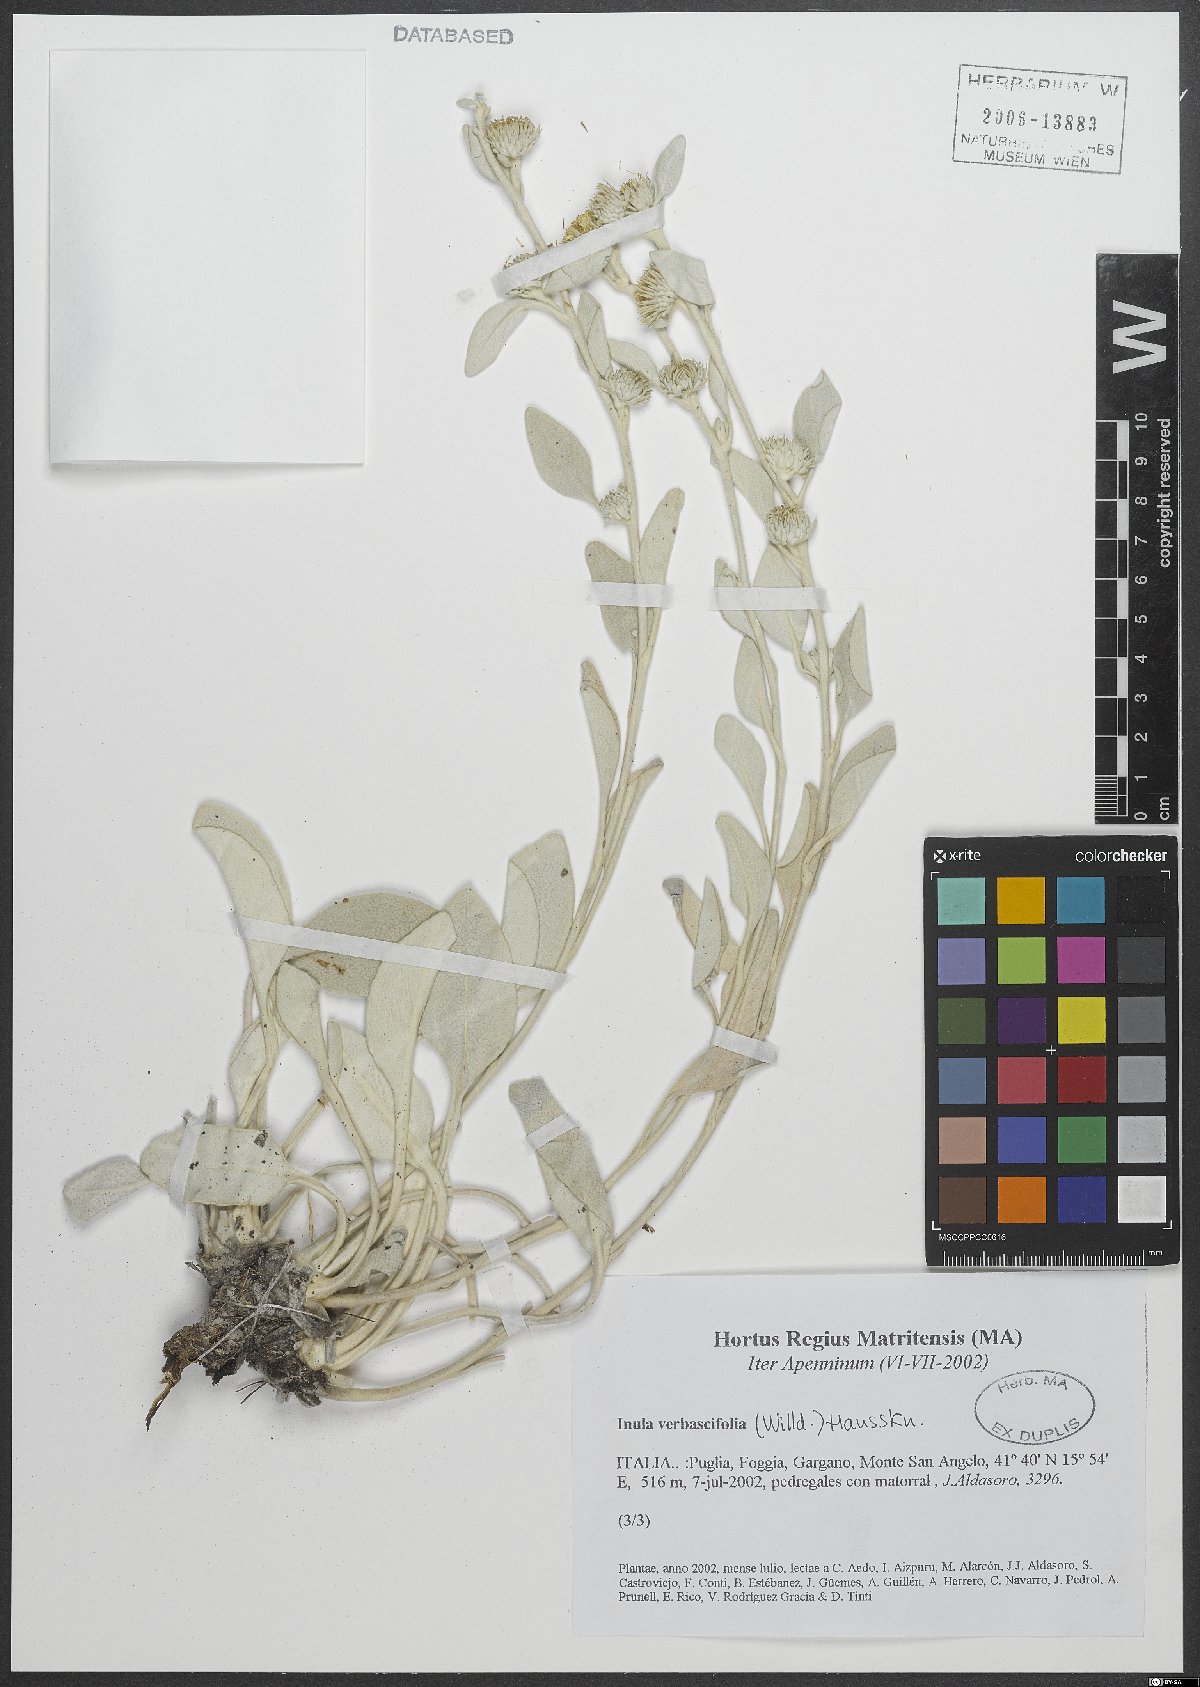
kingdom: Plantae
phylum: Tracheophyta
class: Magnoliopsida
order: Asterales
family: Asteraceae
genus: Pentanema
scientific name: Pentanema verbascifolium
